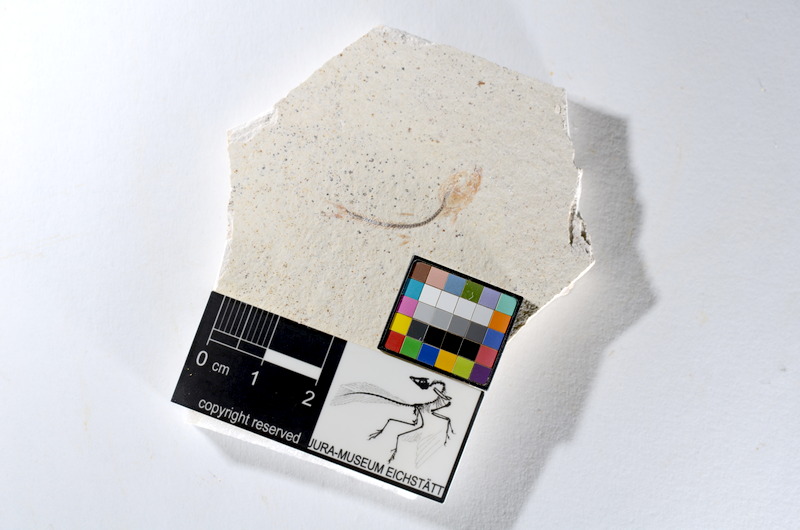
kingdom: Animalia
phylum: Chordata
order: Salmoniformes
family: Orthogonikleithridae
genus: Orthogonikleithrus
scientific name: Orthogonikleithrus hoelli
